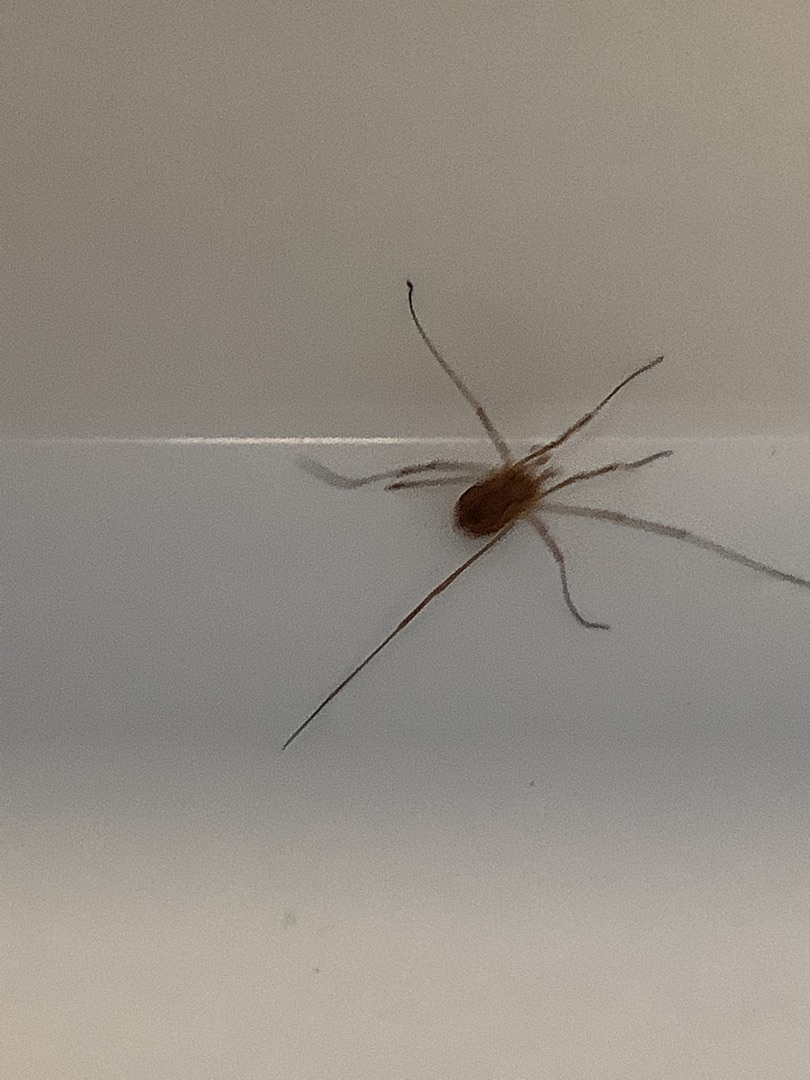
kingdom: Animalia
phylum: Arthropoda
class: Arachnida
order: Opiliones
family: Phalangiidae
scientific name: Phalangiidae
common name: Stormejere
